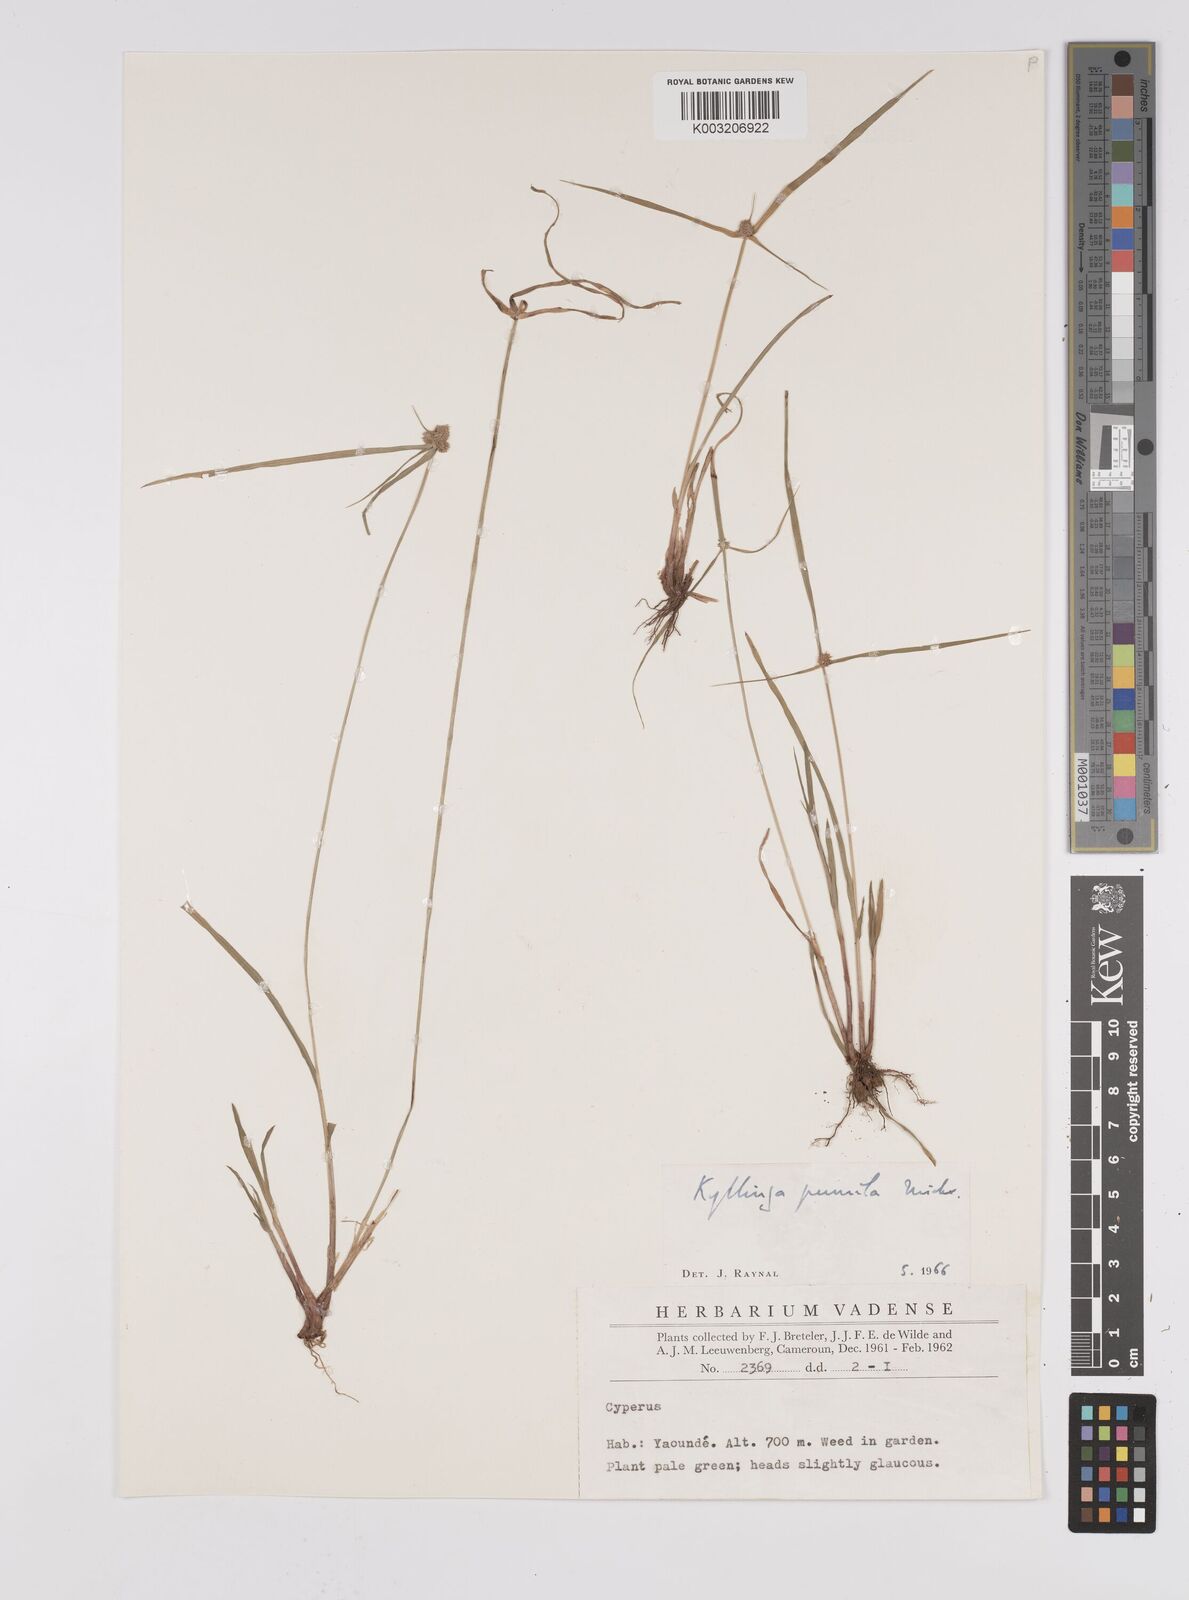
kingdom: Plantae
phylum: Tracheophyta
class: Liliopsida
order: Poales
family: Cyperaceae
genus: Cyperus
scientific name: Cyperus hortensis
